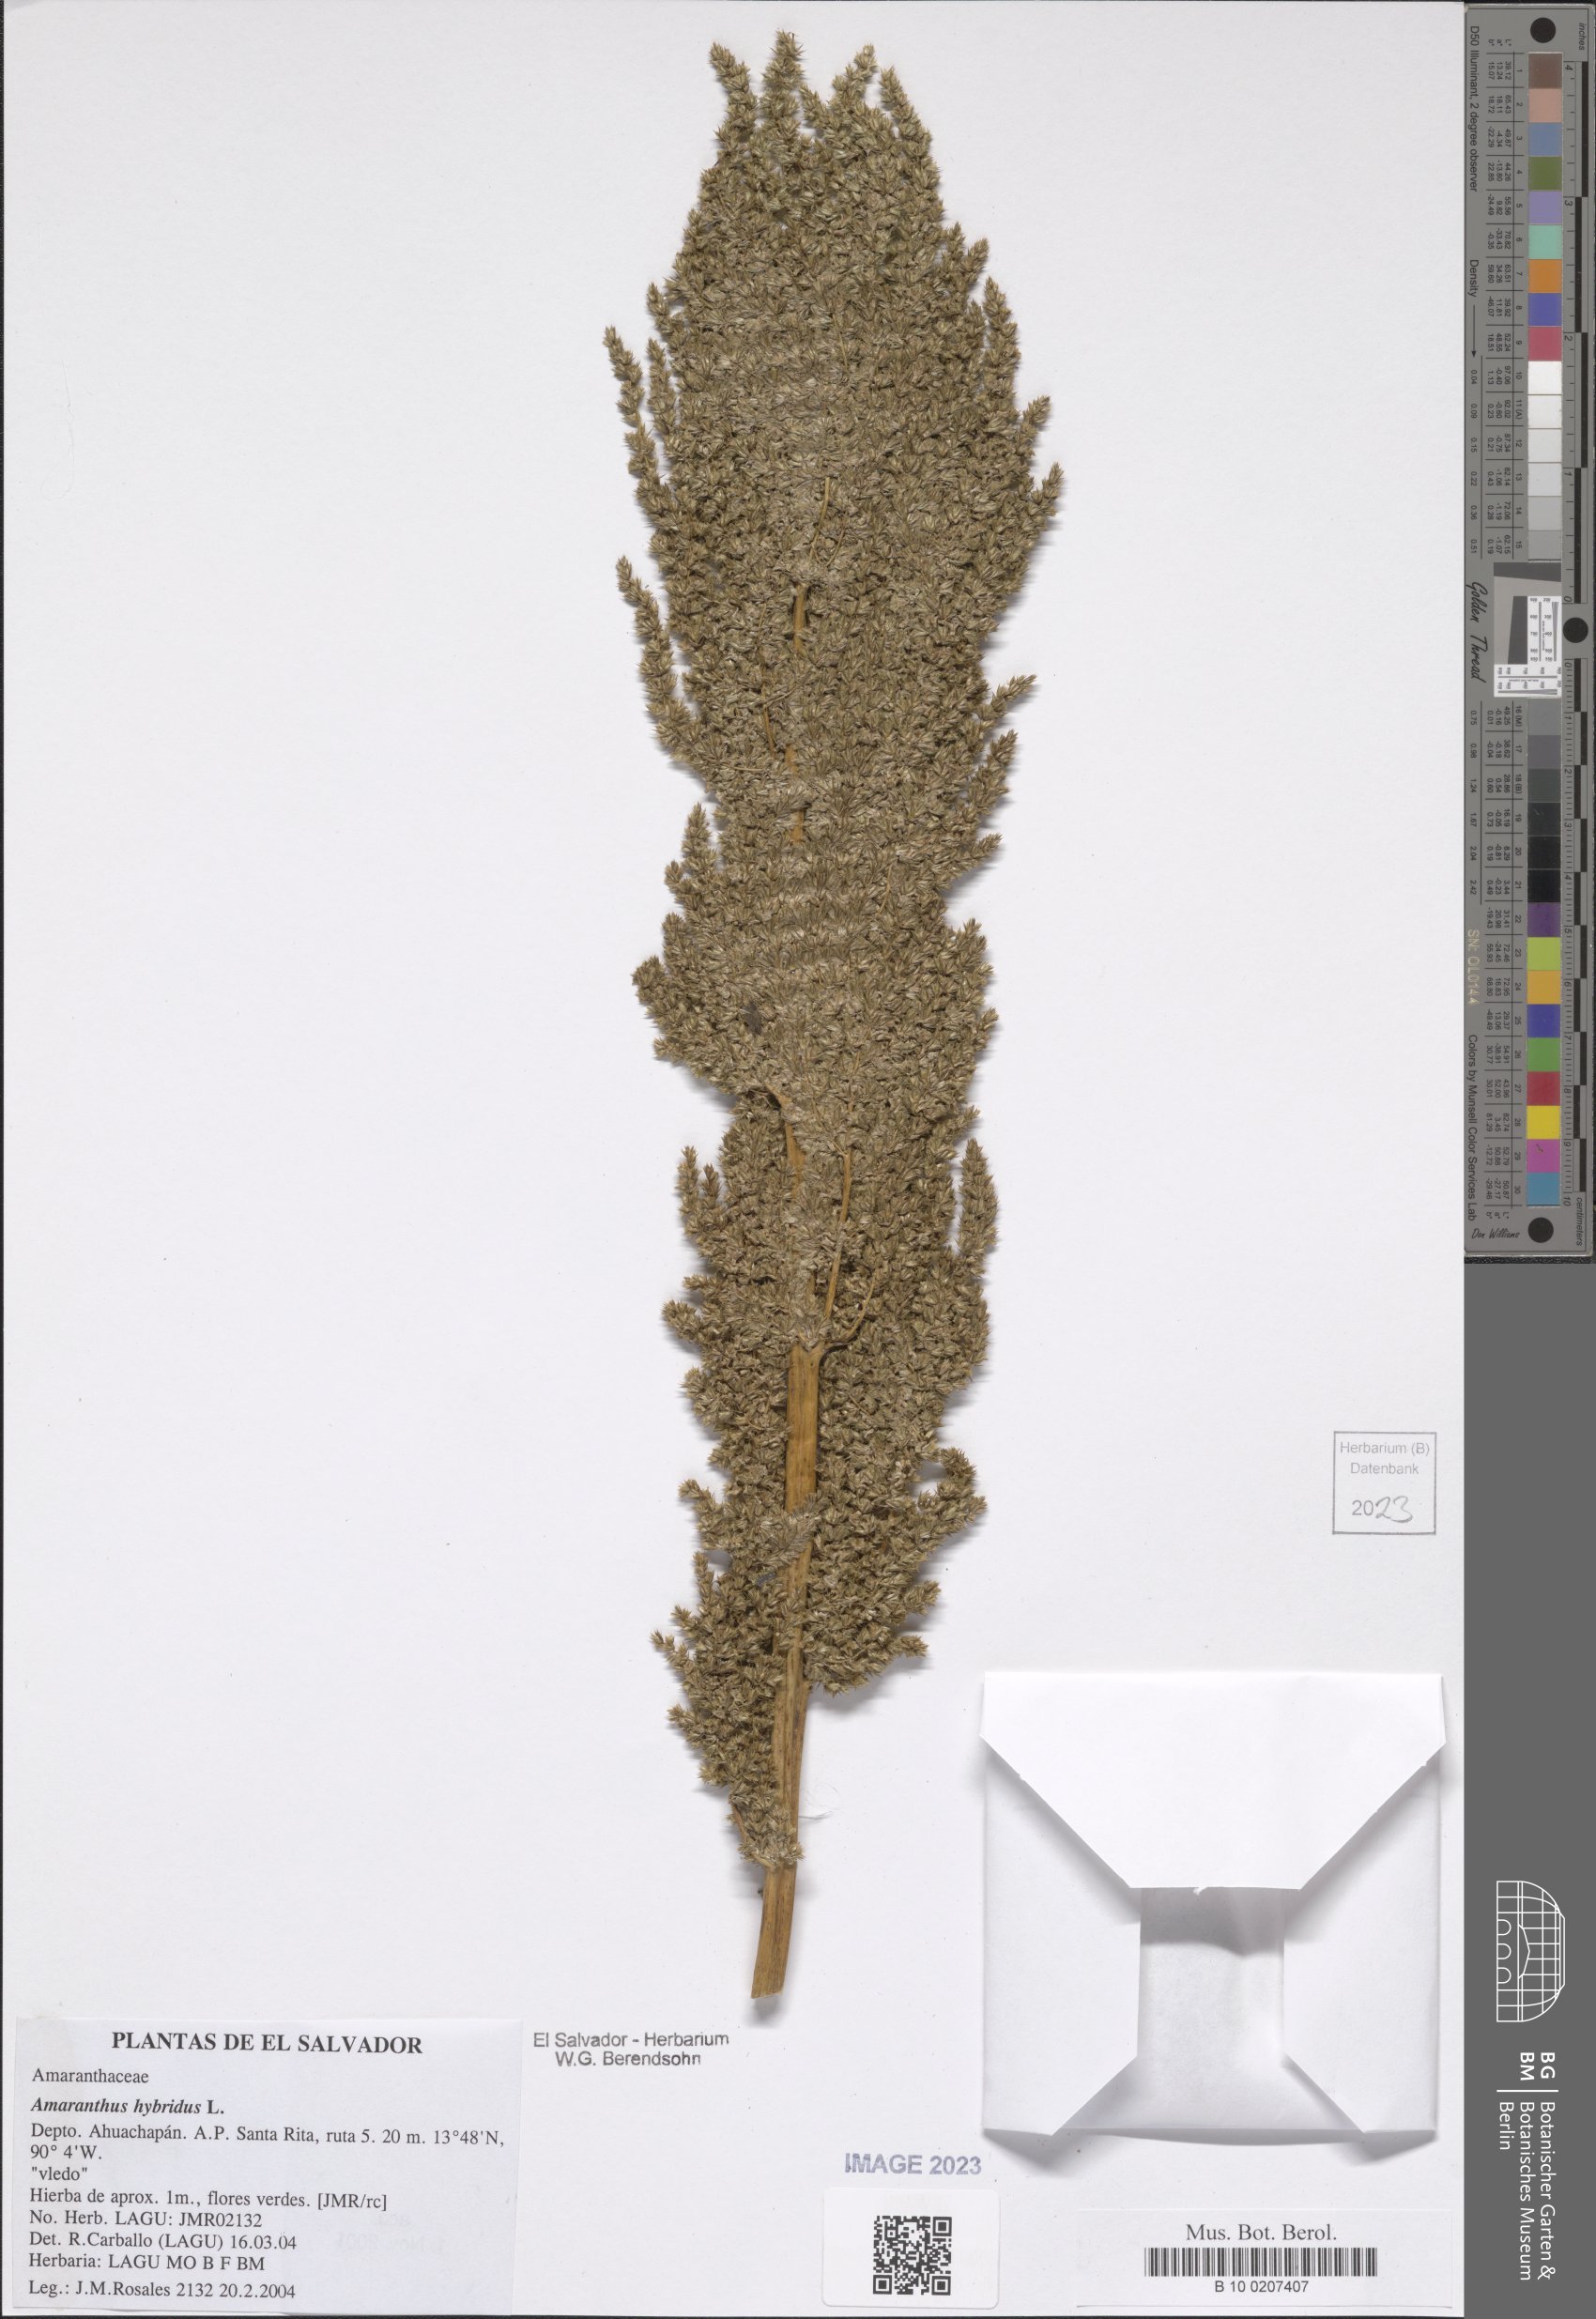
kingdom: Plantae
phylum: Tracheophyta
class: Magnoliopsida
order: Caryophyllales
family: Amaranthaceae
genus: Amaranthus
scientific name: Amaranthus hybridus
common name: Green amaranth
